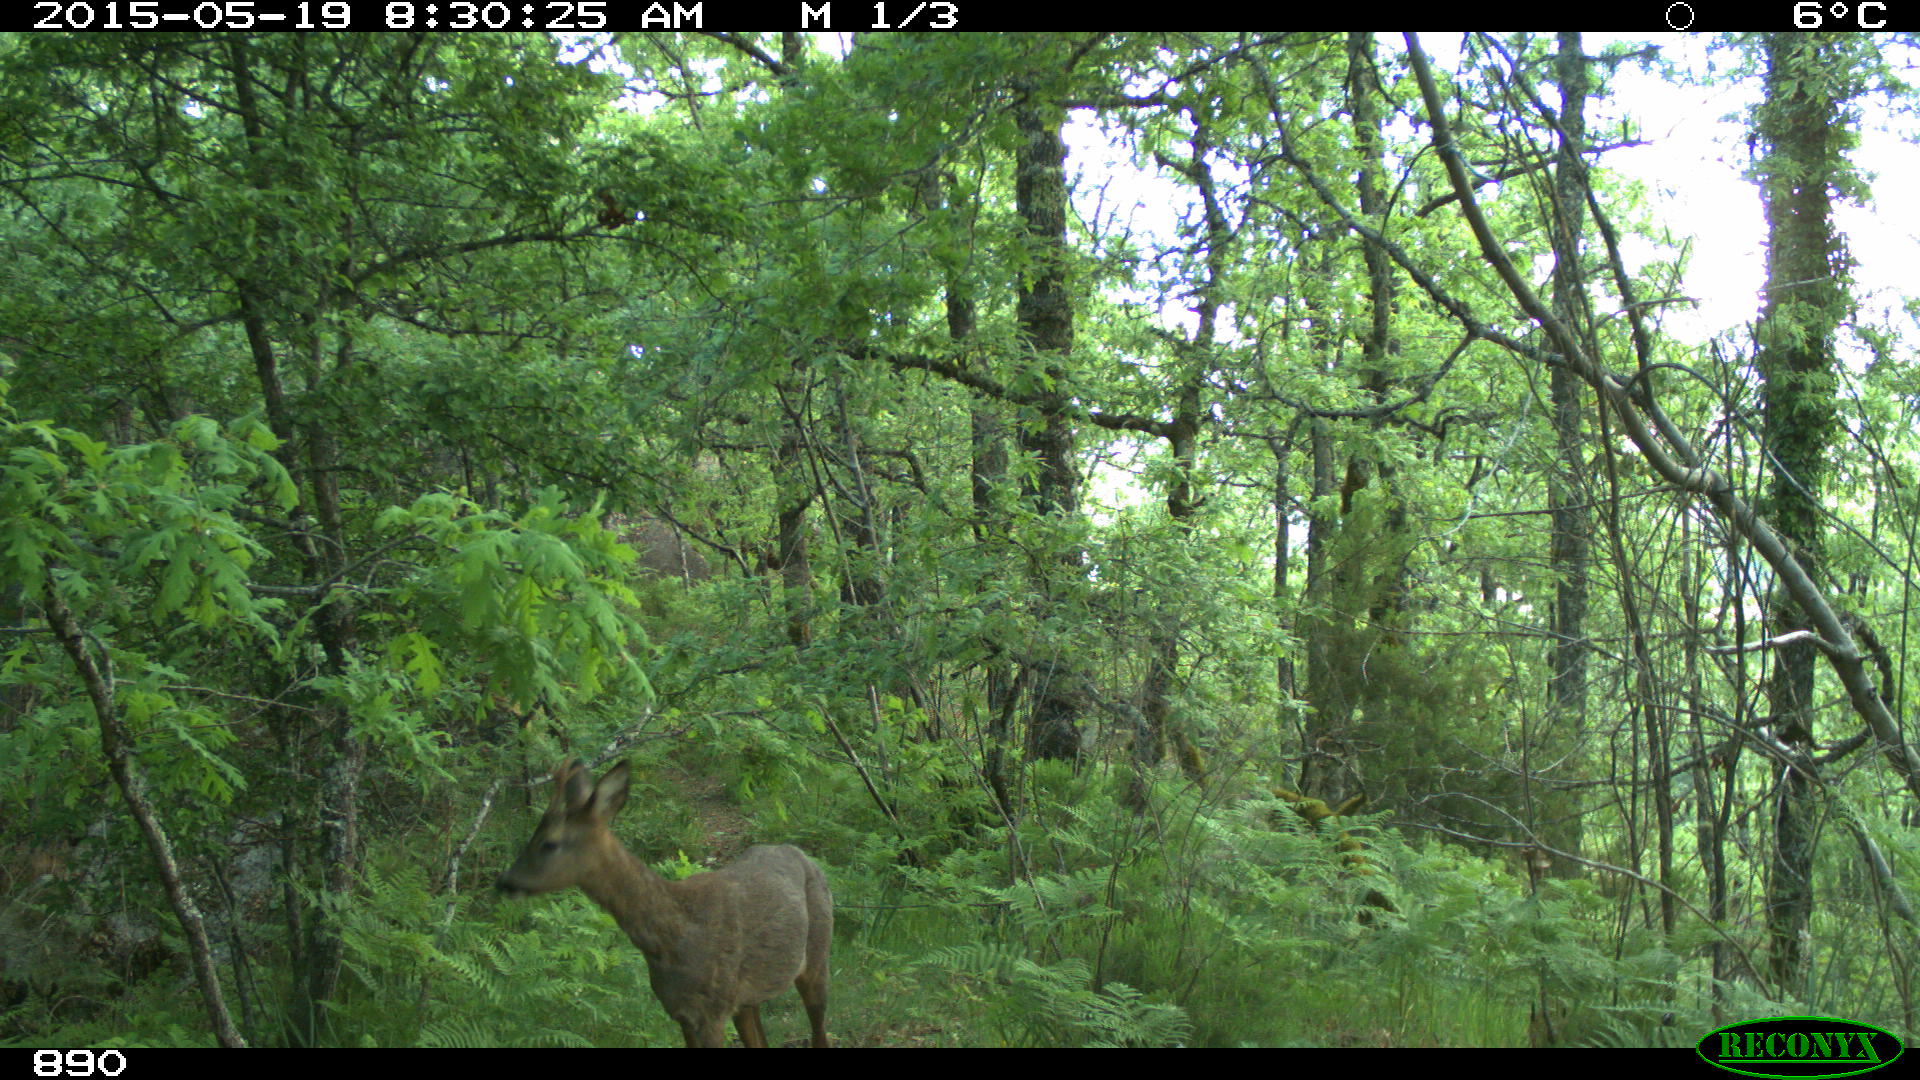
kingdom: Animalia
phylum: Chordata
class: Mammalia
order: Artiodactyla
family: Cervidae
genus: Capreolus
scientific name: Capreolus capreolus
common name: Western roe deer
